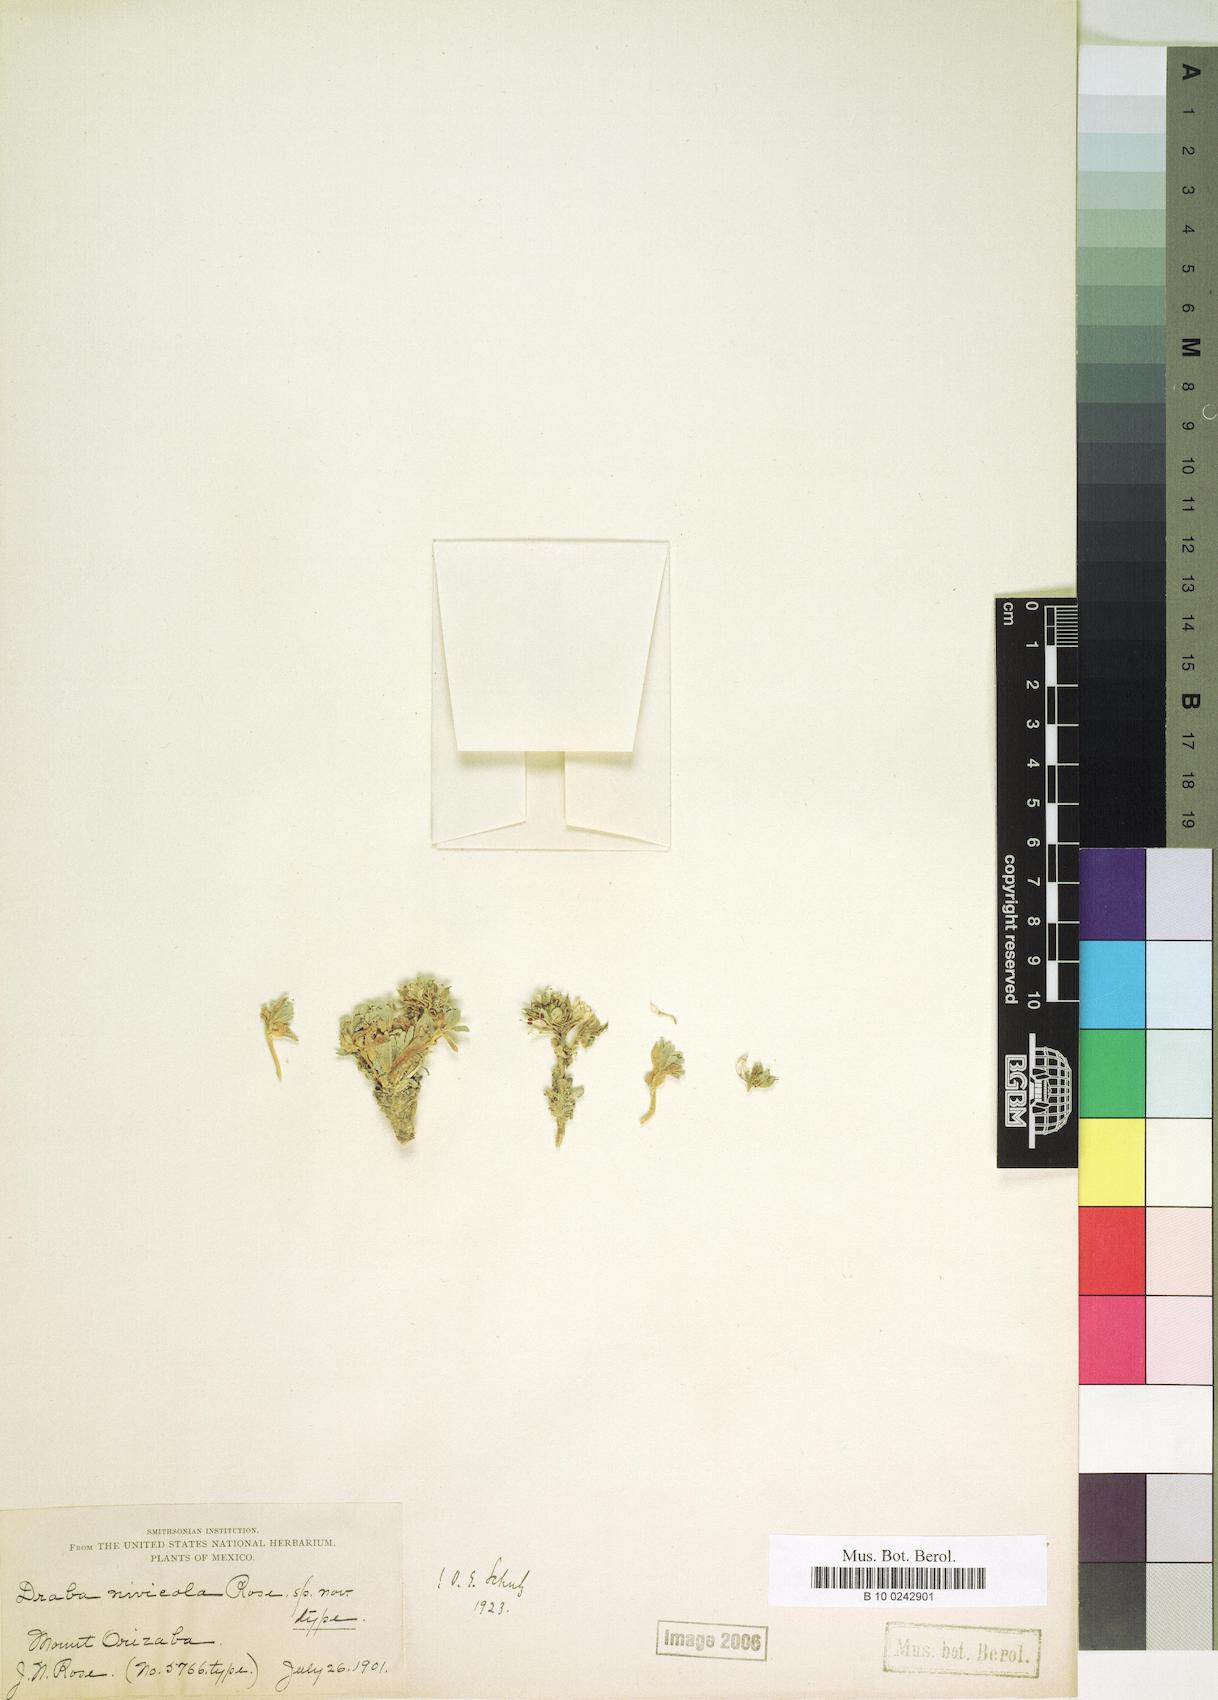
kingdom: Plantae
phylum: Tracheophyta
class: Magnoliopsida
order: Brassicales
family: Brassicaceae
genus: Draba
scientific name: Draba nivicola
